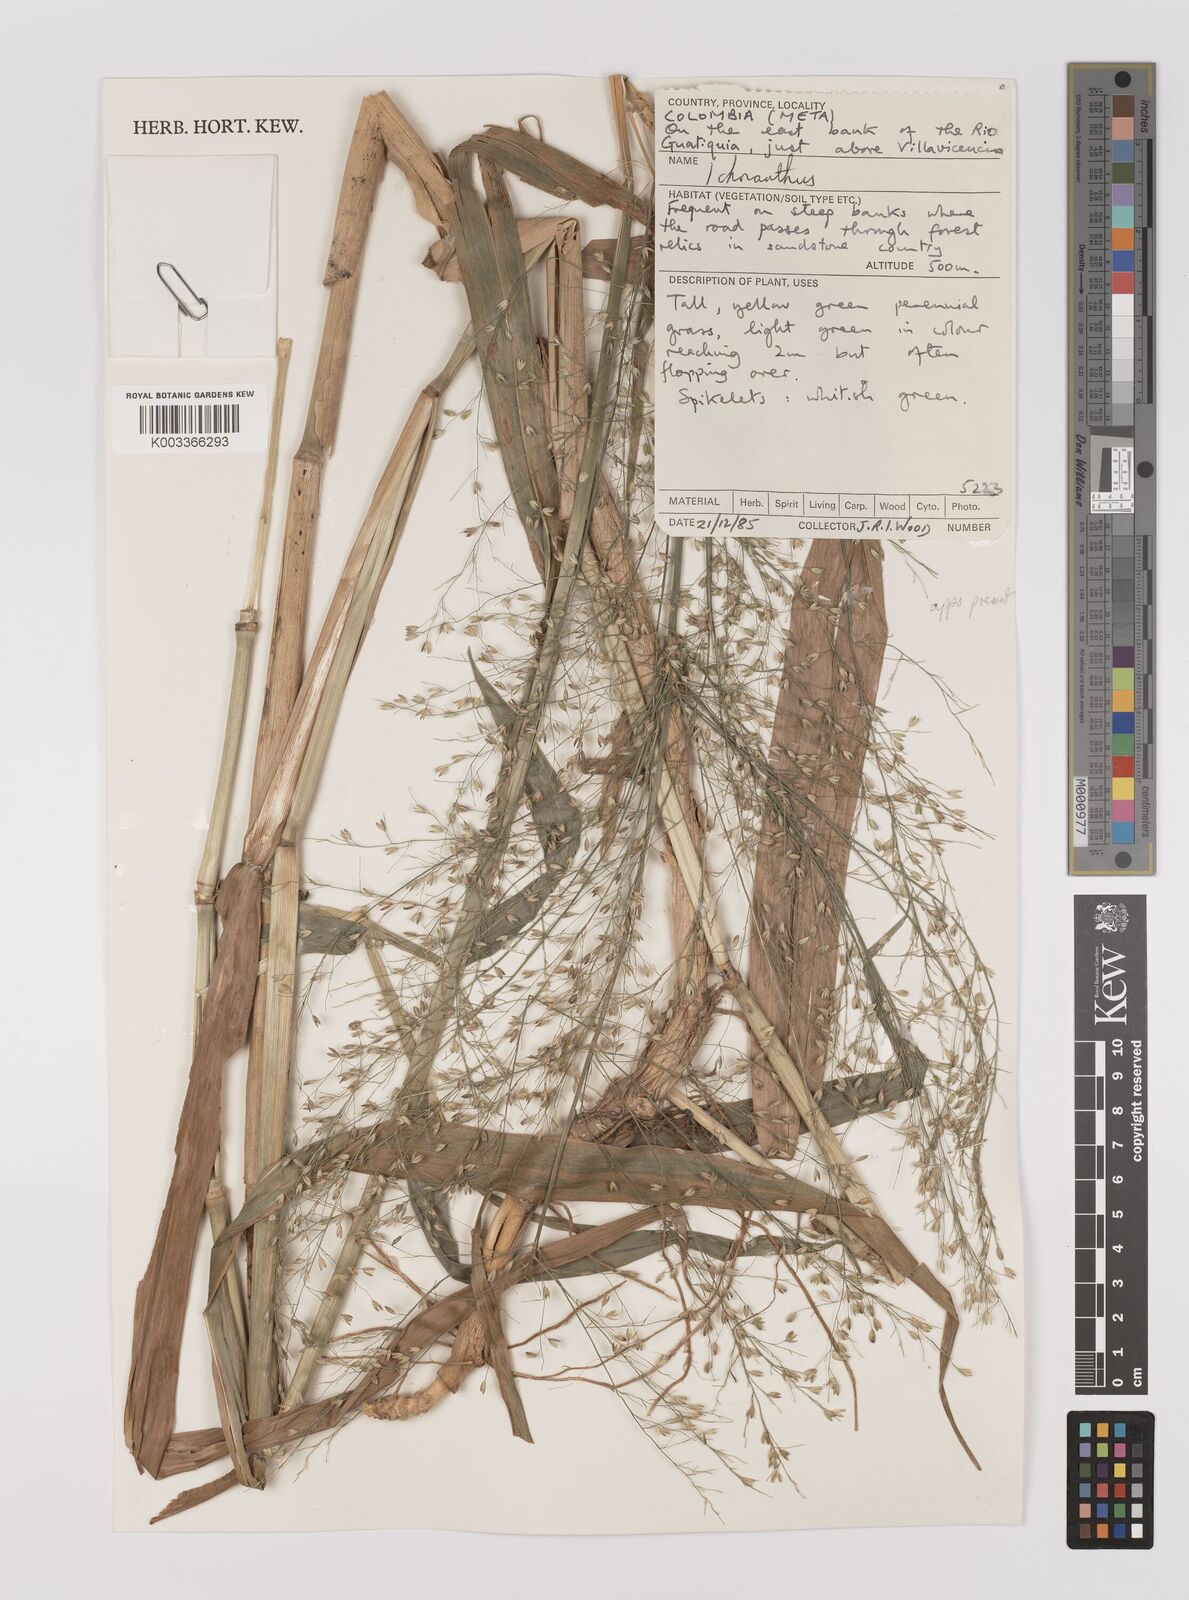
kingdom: Plantae
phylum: Tracheophyta
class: Liliopsida
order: Poales
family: Poaceae
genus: Ichnanthus
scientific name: Ichnanthus calvescens
